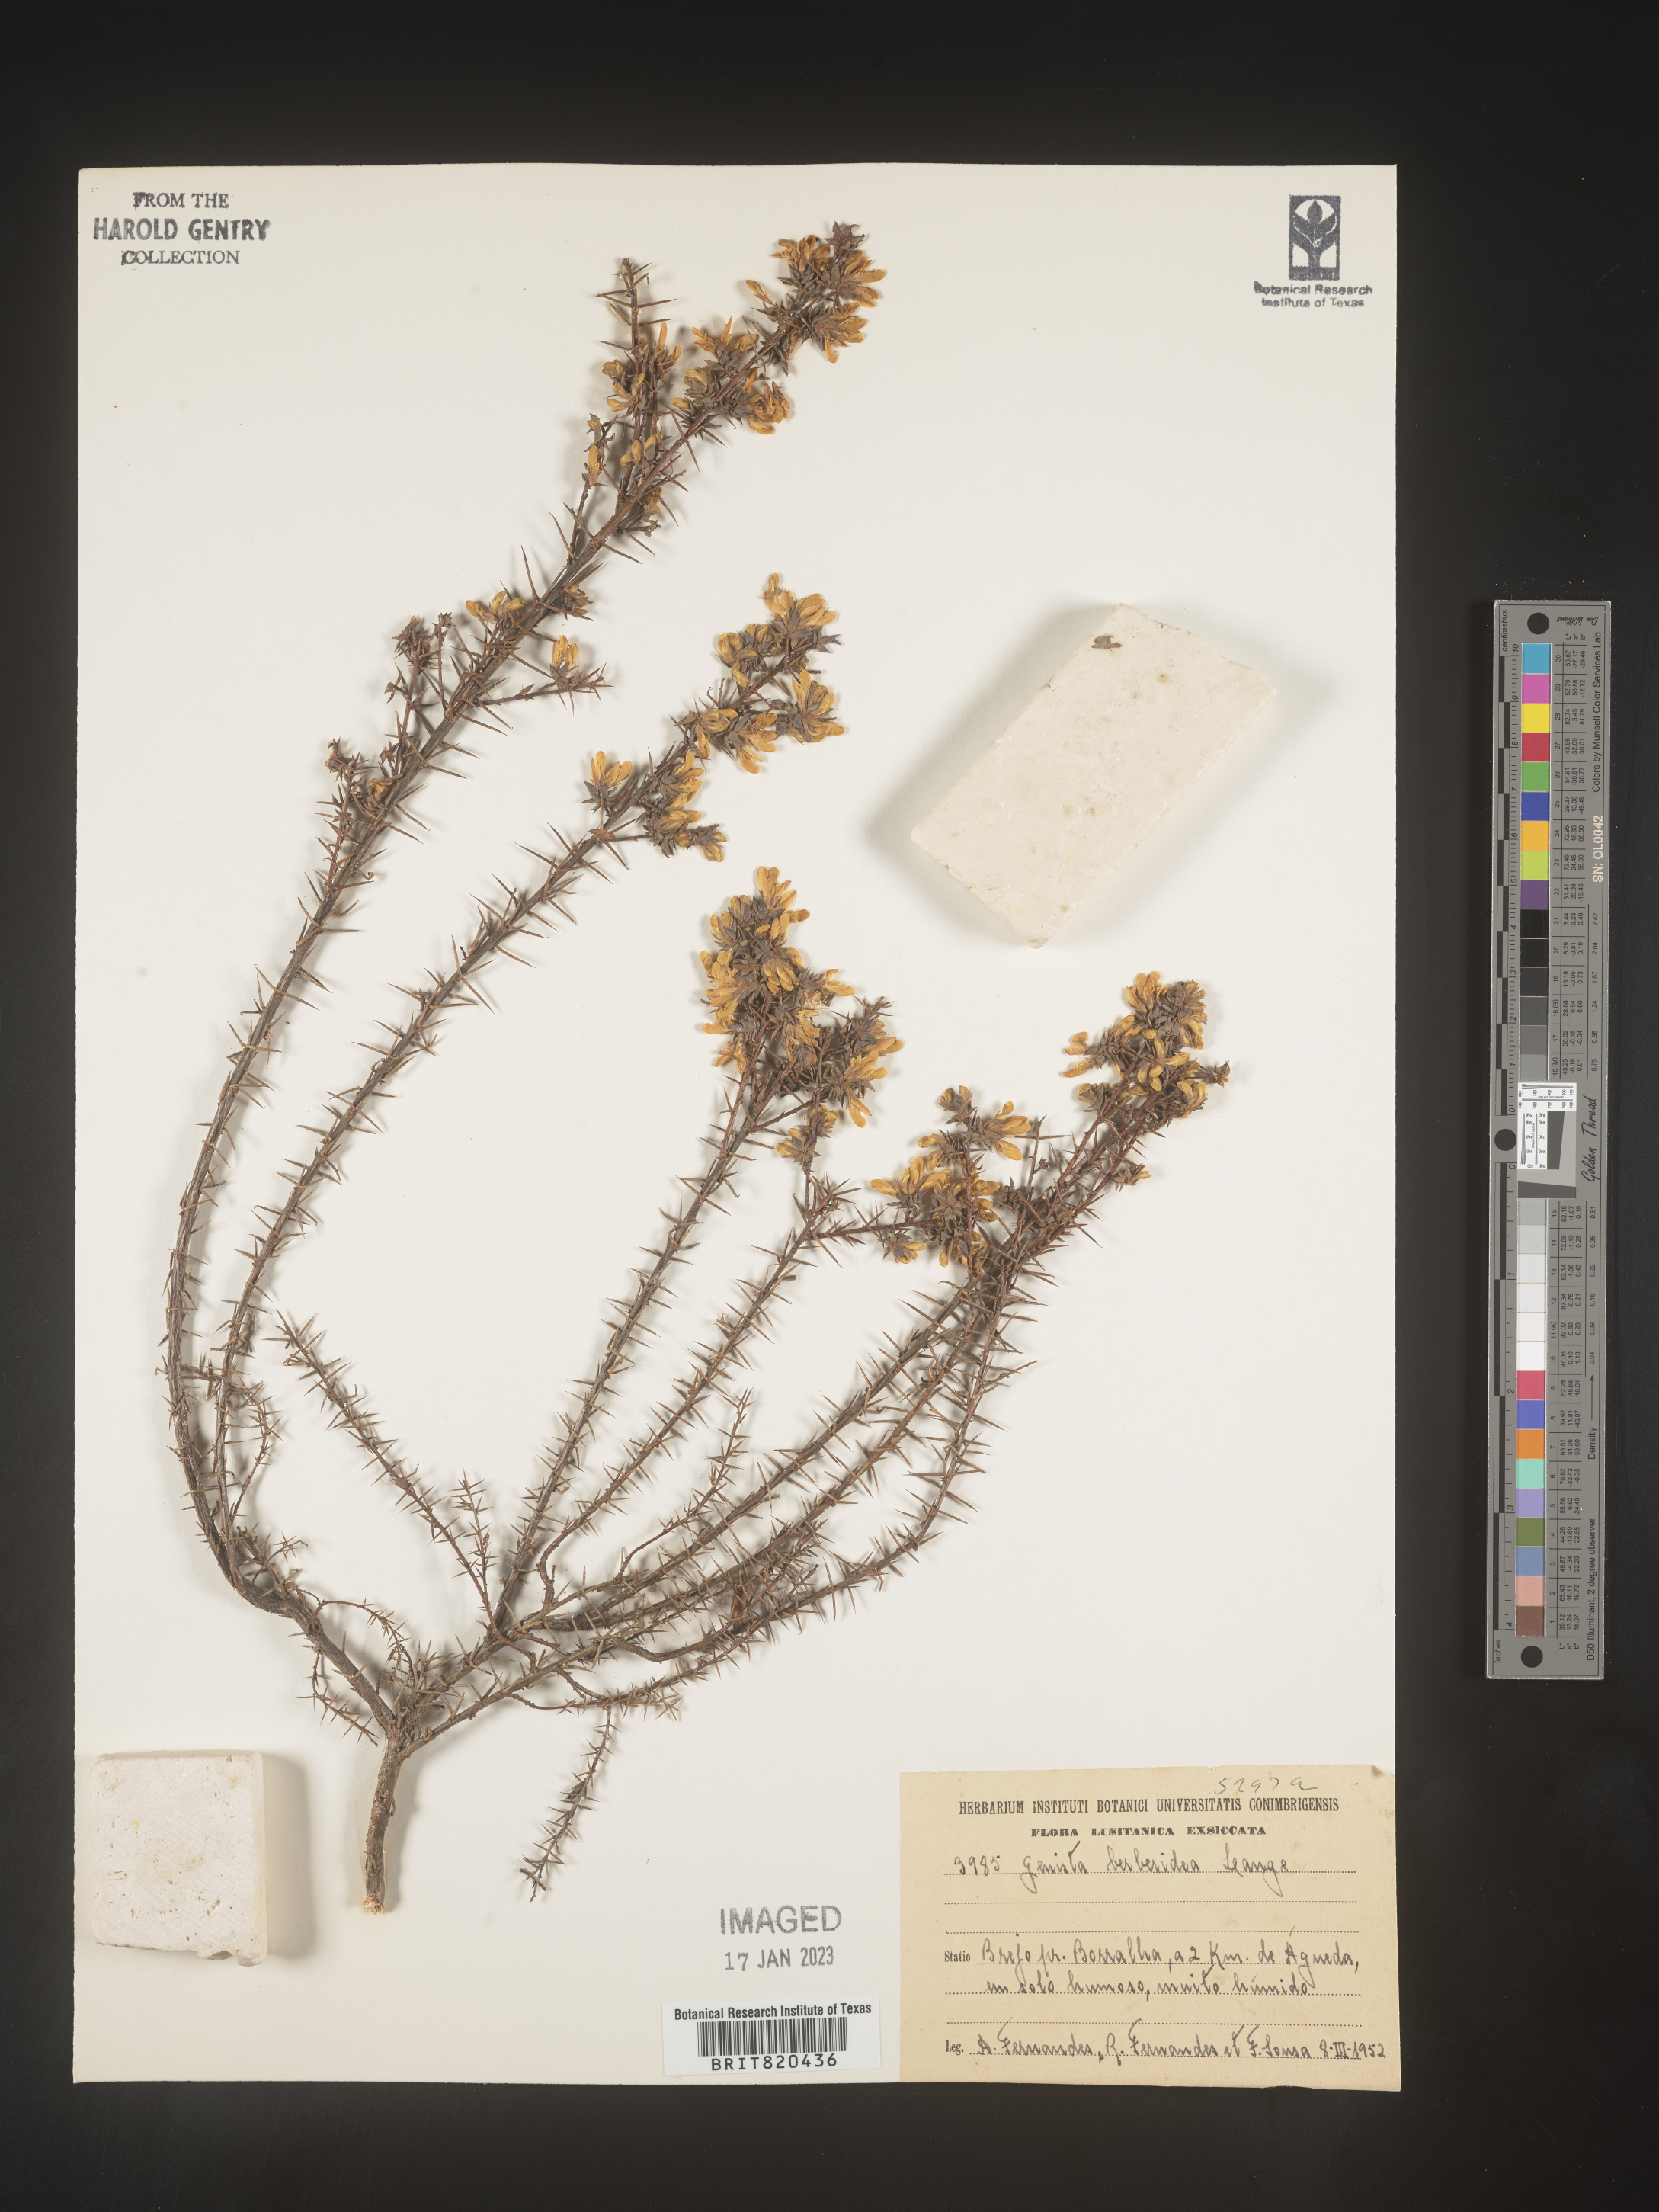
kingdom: Plantae
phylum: Tracheophyta
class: Magnoliopsida
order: Fabales
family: Fabaceae
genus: Genista
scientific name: Genista
